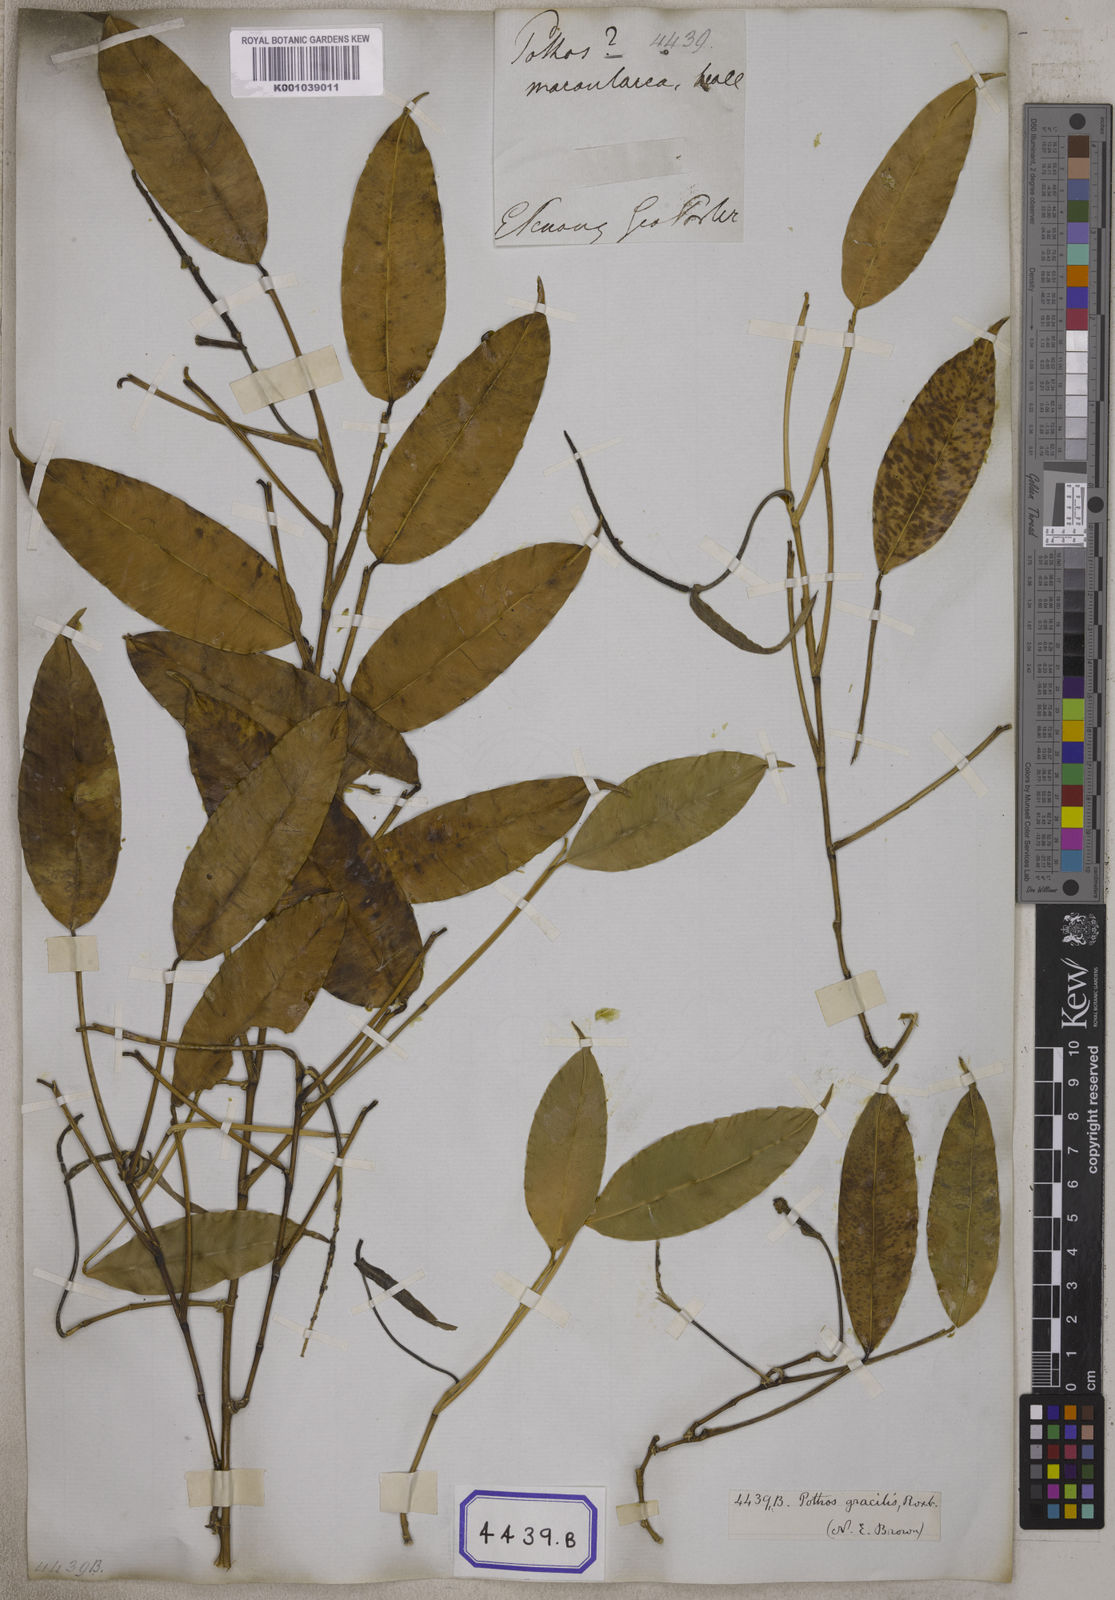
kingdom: Plantae
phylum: Tracheophyta
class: Liliopsida
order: Alismatales
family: Araceae
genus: Pothos
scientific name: Pothos tener
